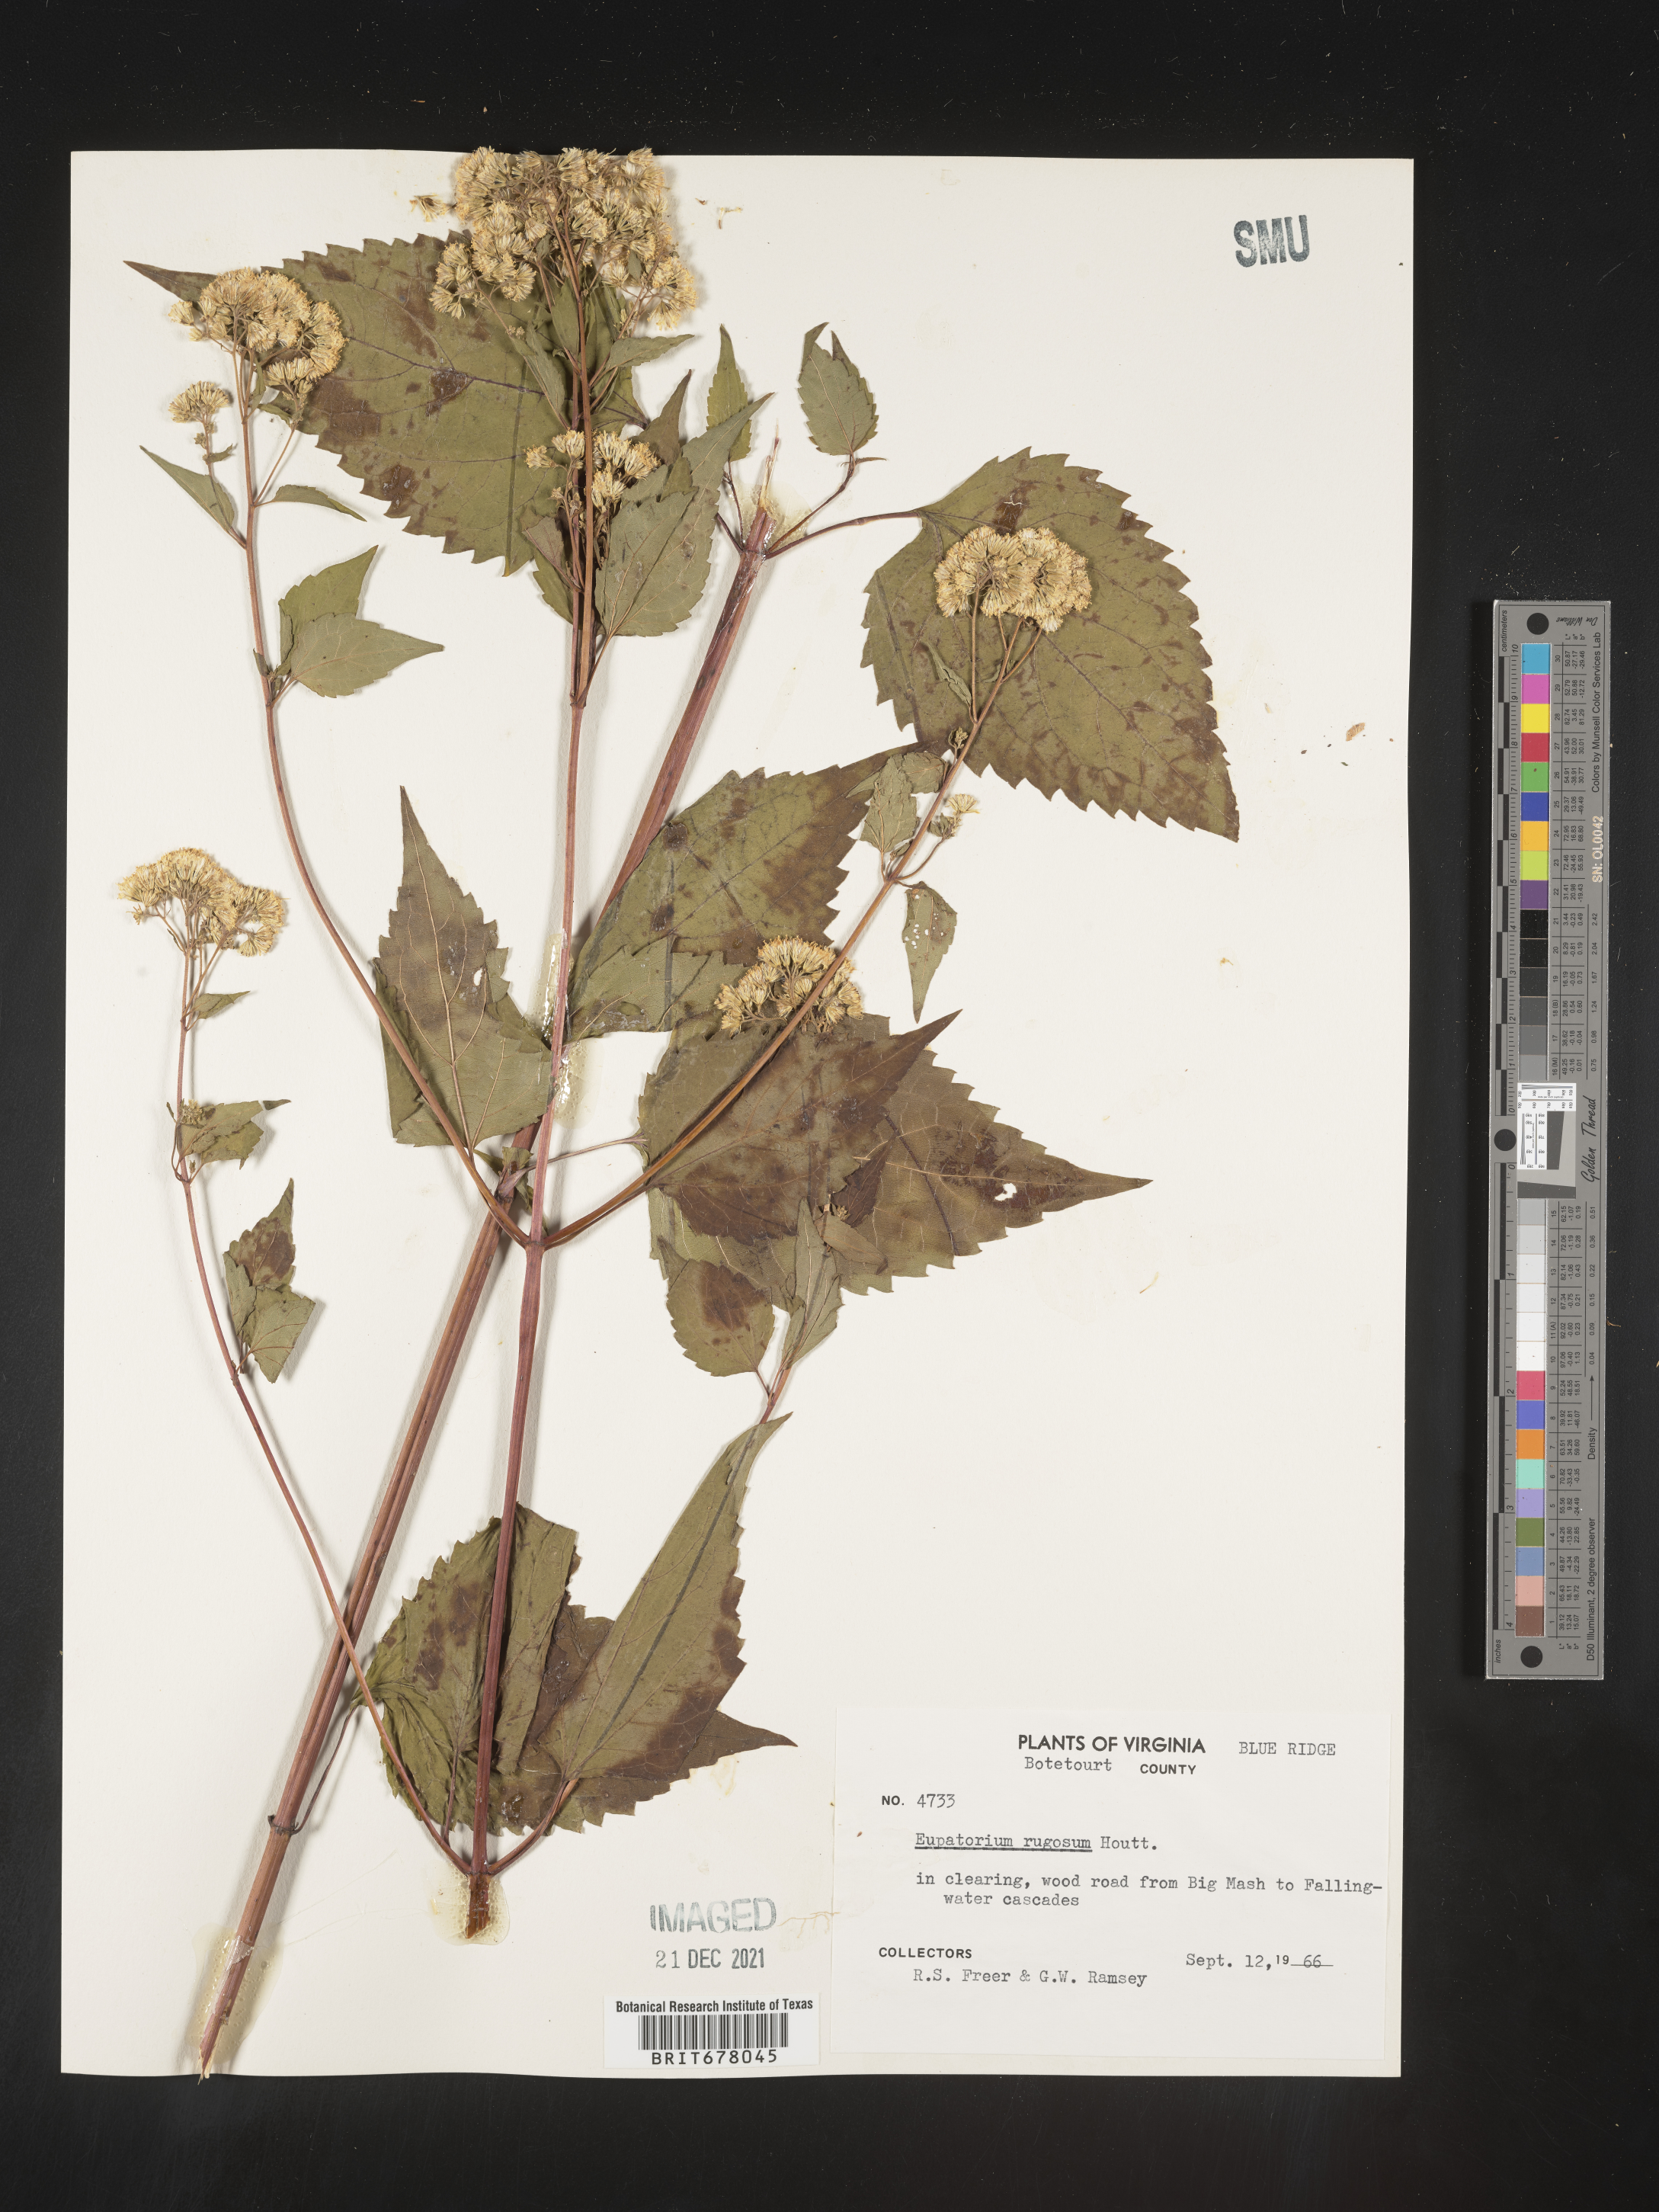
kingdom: Plantae
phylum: Tracheophyta
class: Magnoliopsida
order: Asterales
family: Asteraceae
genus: Eupatorium
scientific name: Eupatorium
